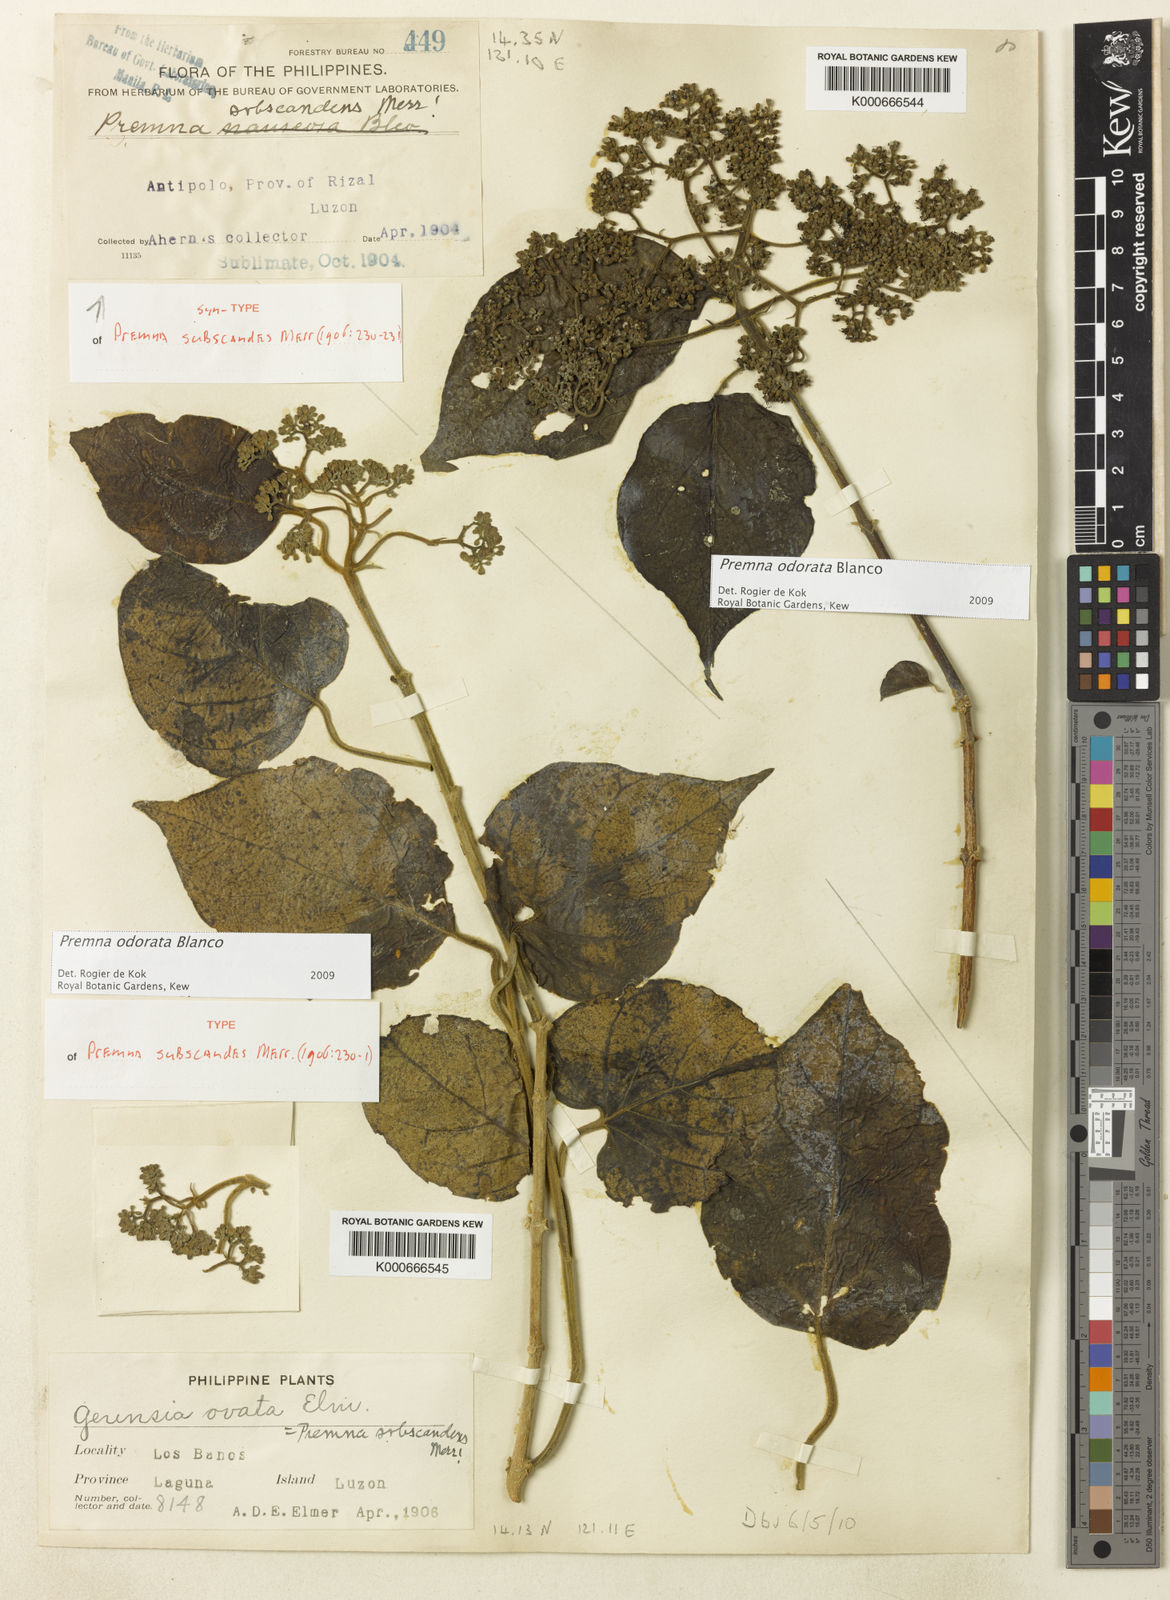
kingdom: Plantae
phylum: Tracheophyta
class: Magnoliopsida
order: Lamiales
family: Lamiaceae
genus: Premna
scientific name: Premna odorata
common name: Fragrant premna
